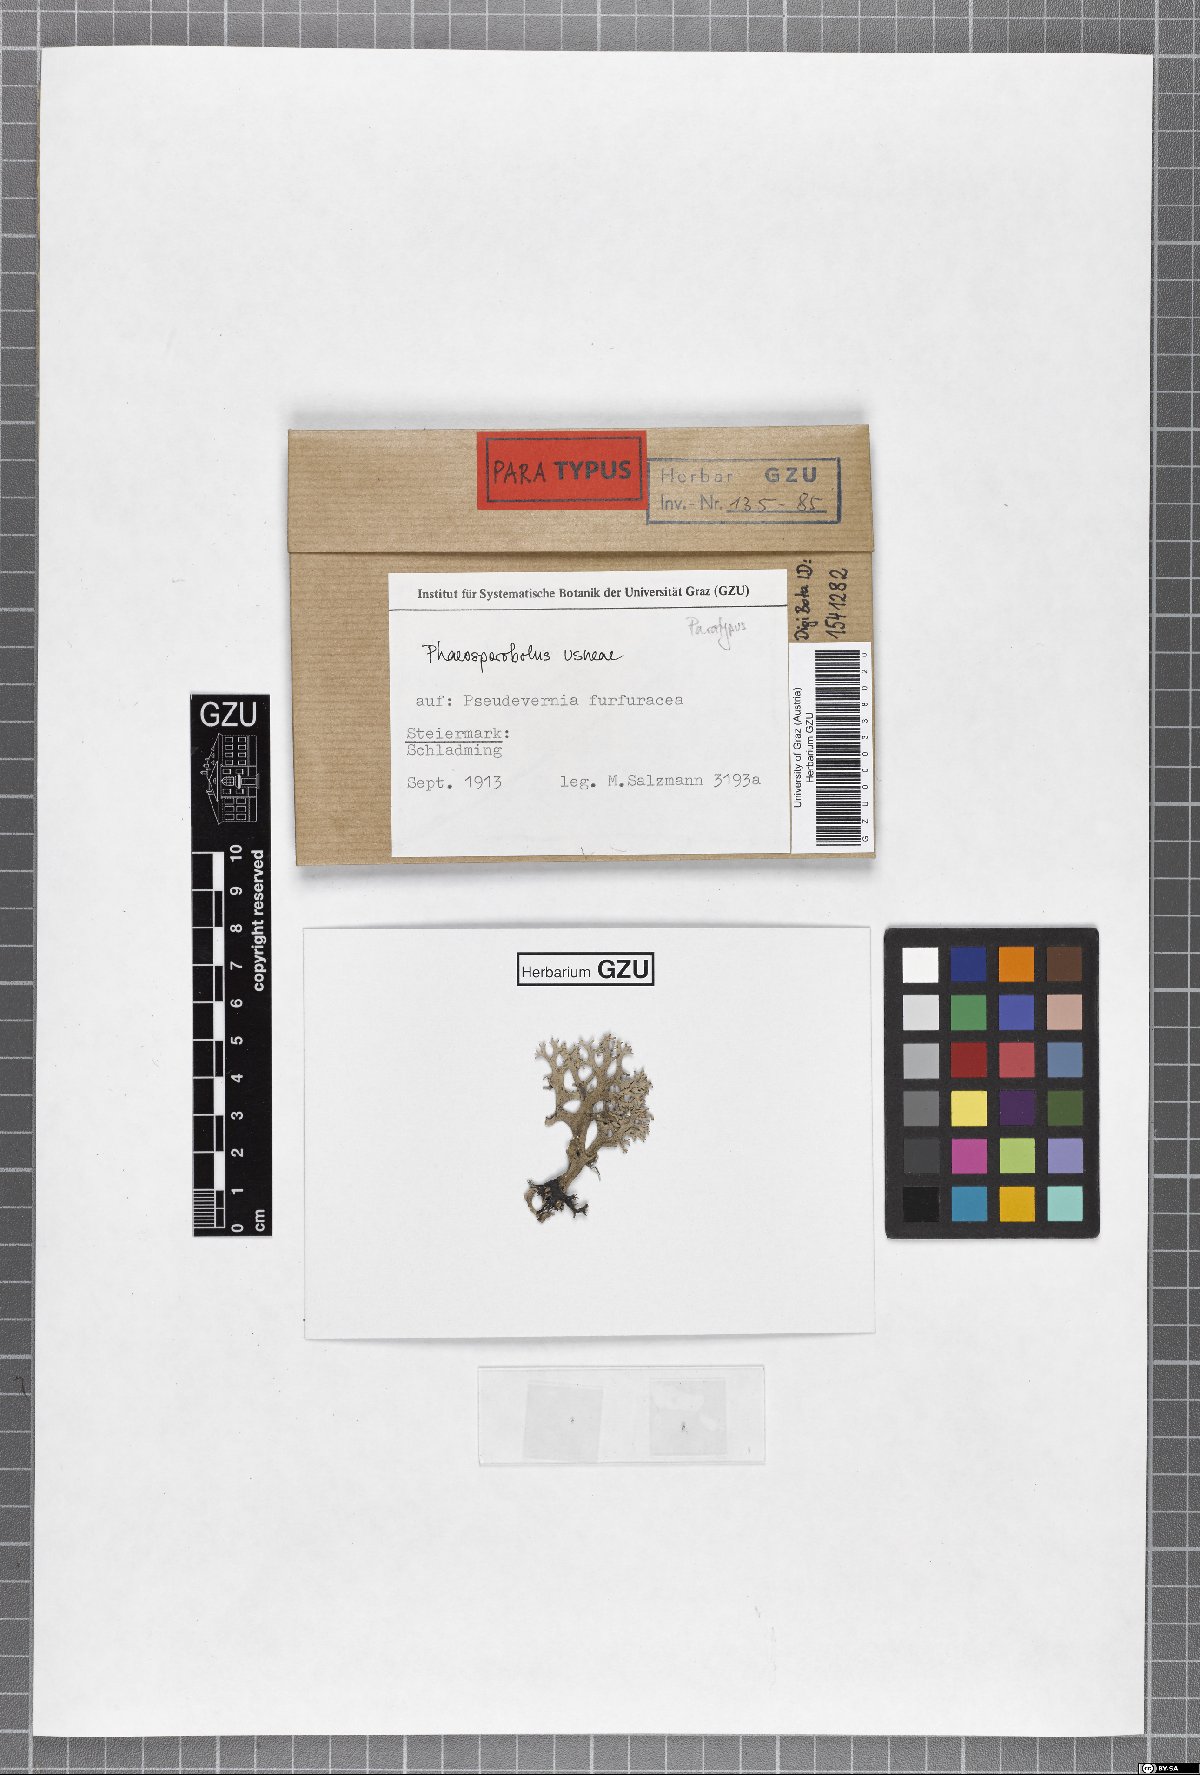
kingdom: Fungi
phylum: Ascomycota
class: Arthoniomycetes
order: Lichenostigmatales
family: Phaeococcomycetaceae
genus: Phaeosporobolus
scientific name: Phaeosporobolus usneae
